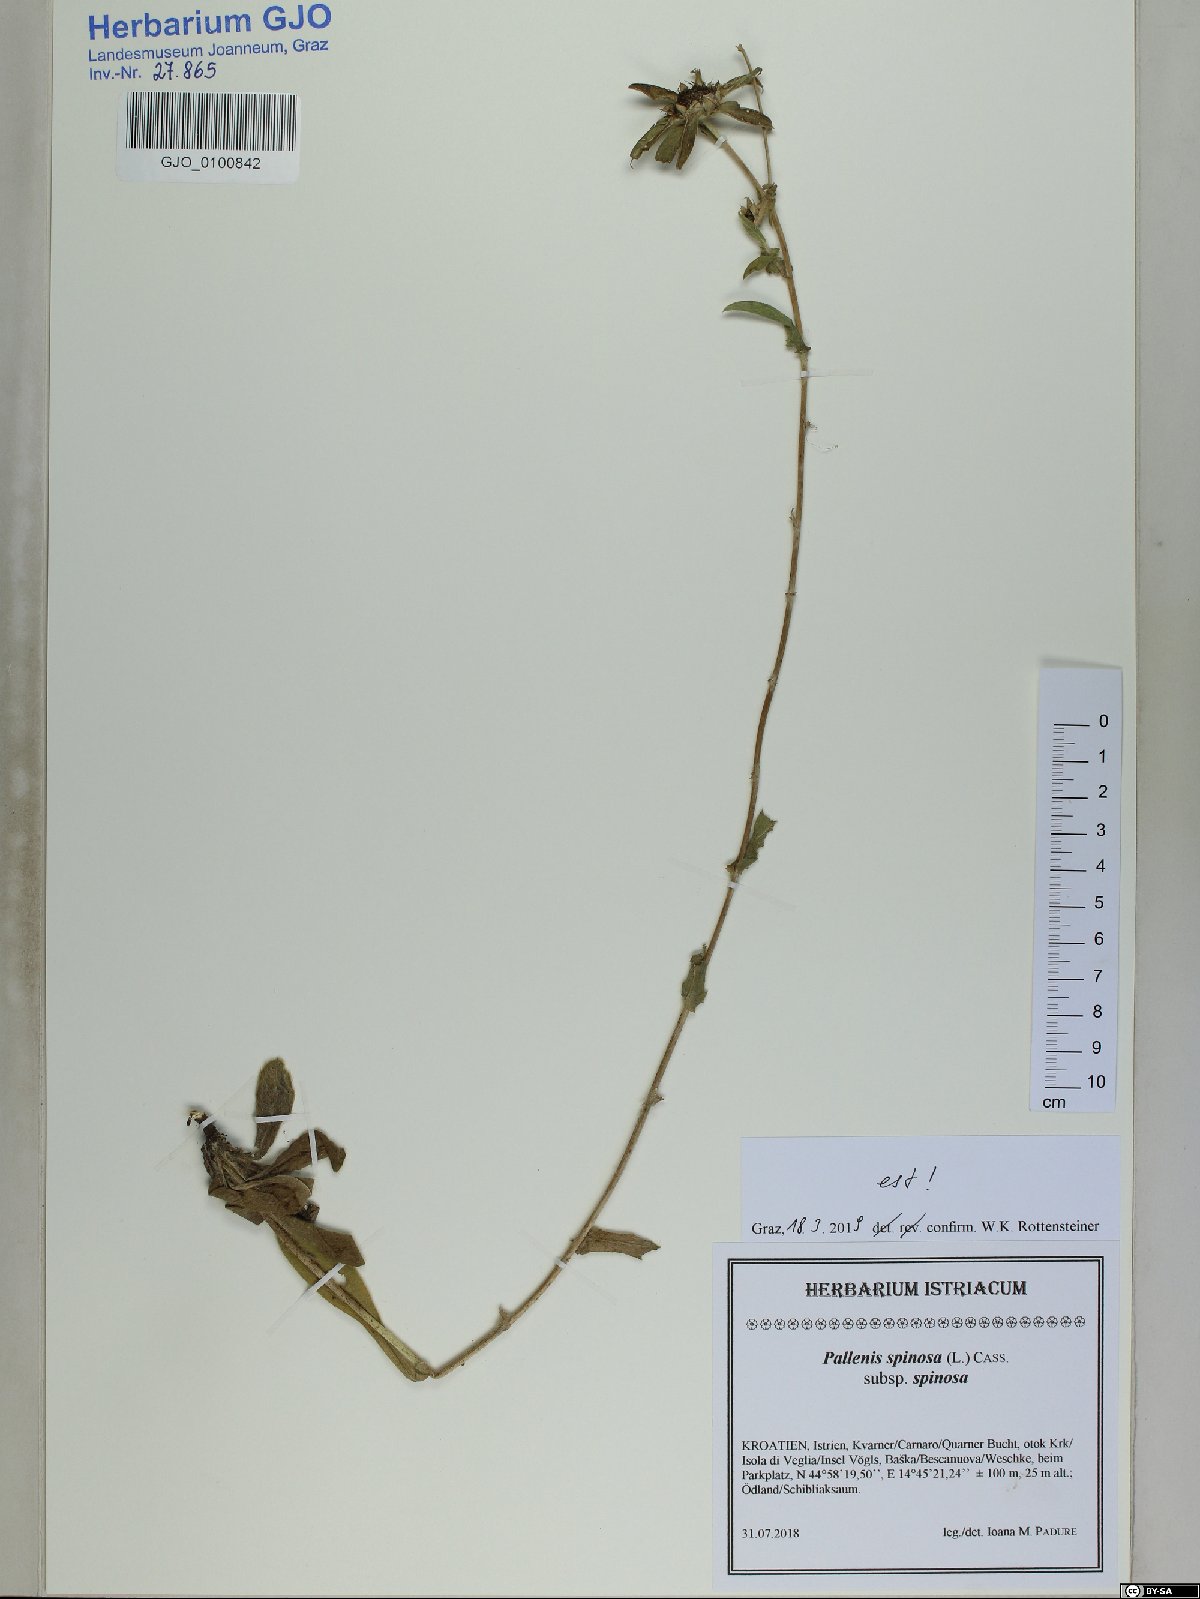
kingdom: Plantae
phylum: Tracheophyta
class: Magnoliopsida
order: Asterales
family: Asteraceae
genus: Pallenis
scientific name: Pallenis spinosa
